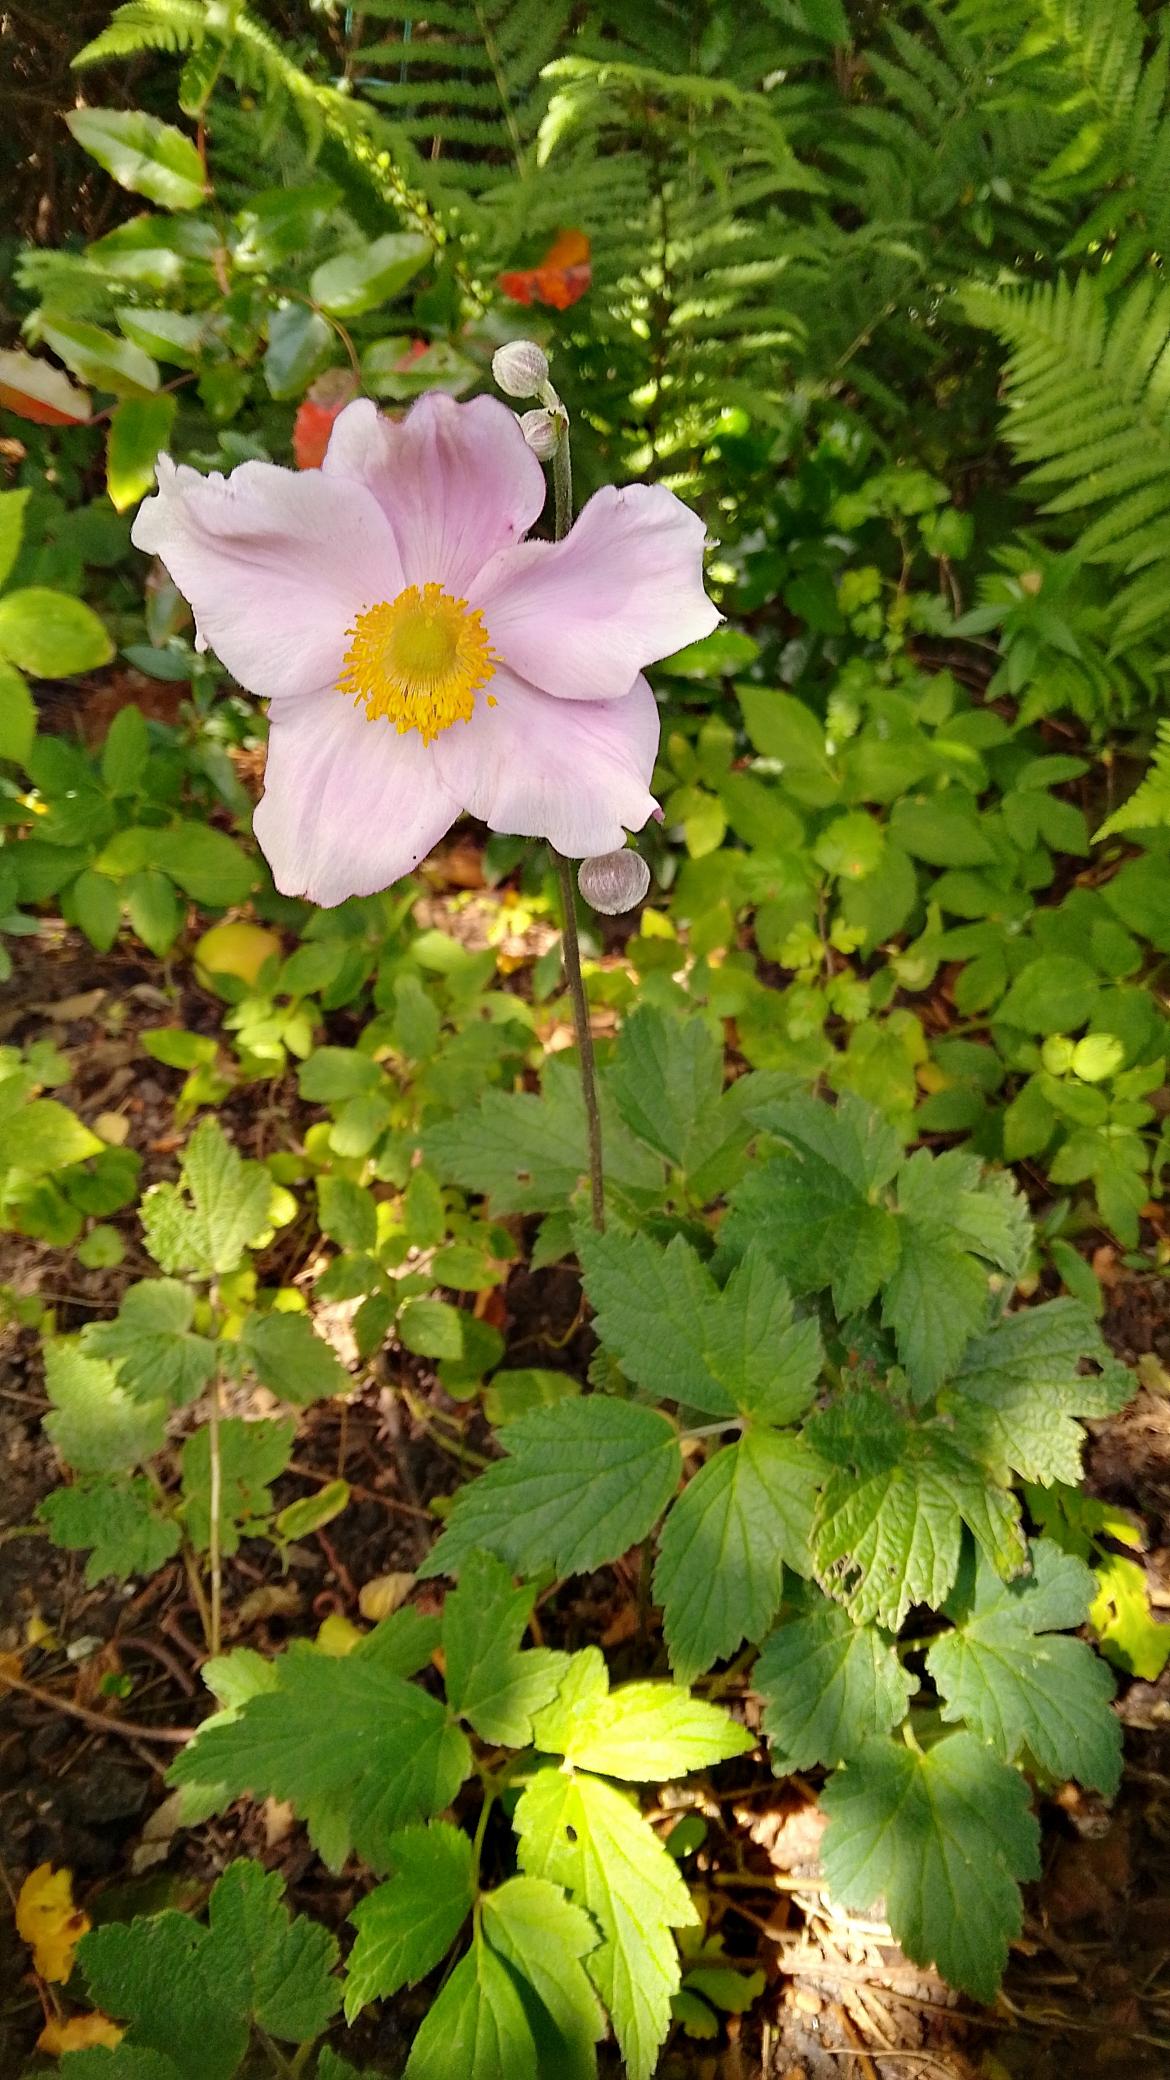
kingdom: Plantae
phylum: Tracheophyta
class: Magnoliopsida
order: Ranunculales
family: Ranunculaceae
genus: Eriocapitella
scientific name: Eriocapitella hupehensis
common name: Høst-anemone
